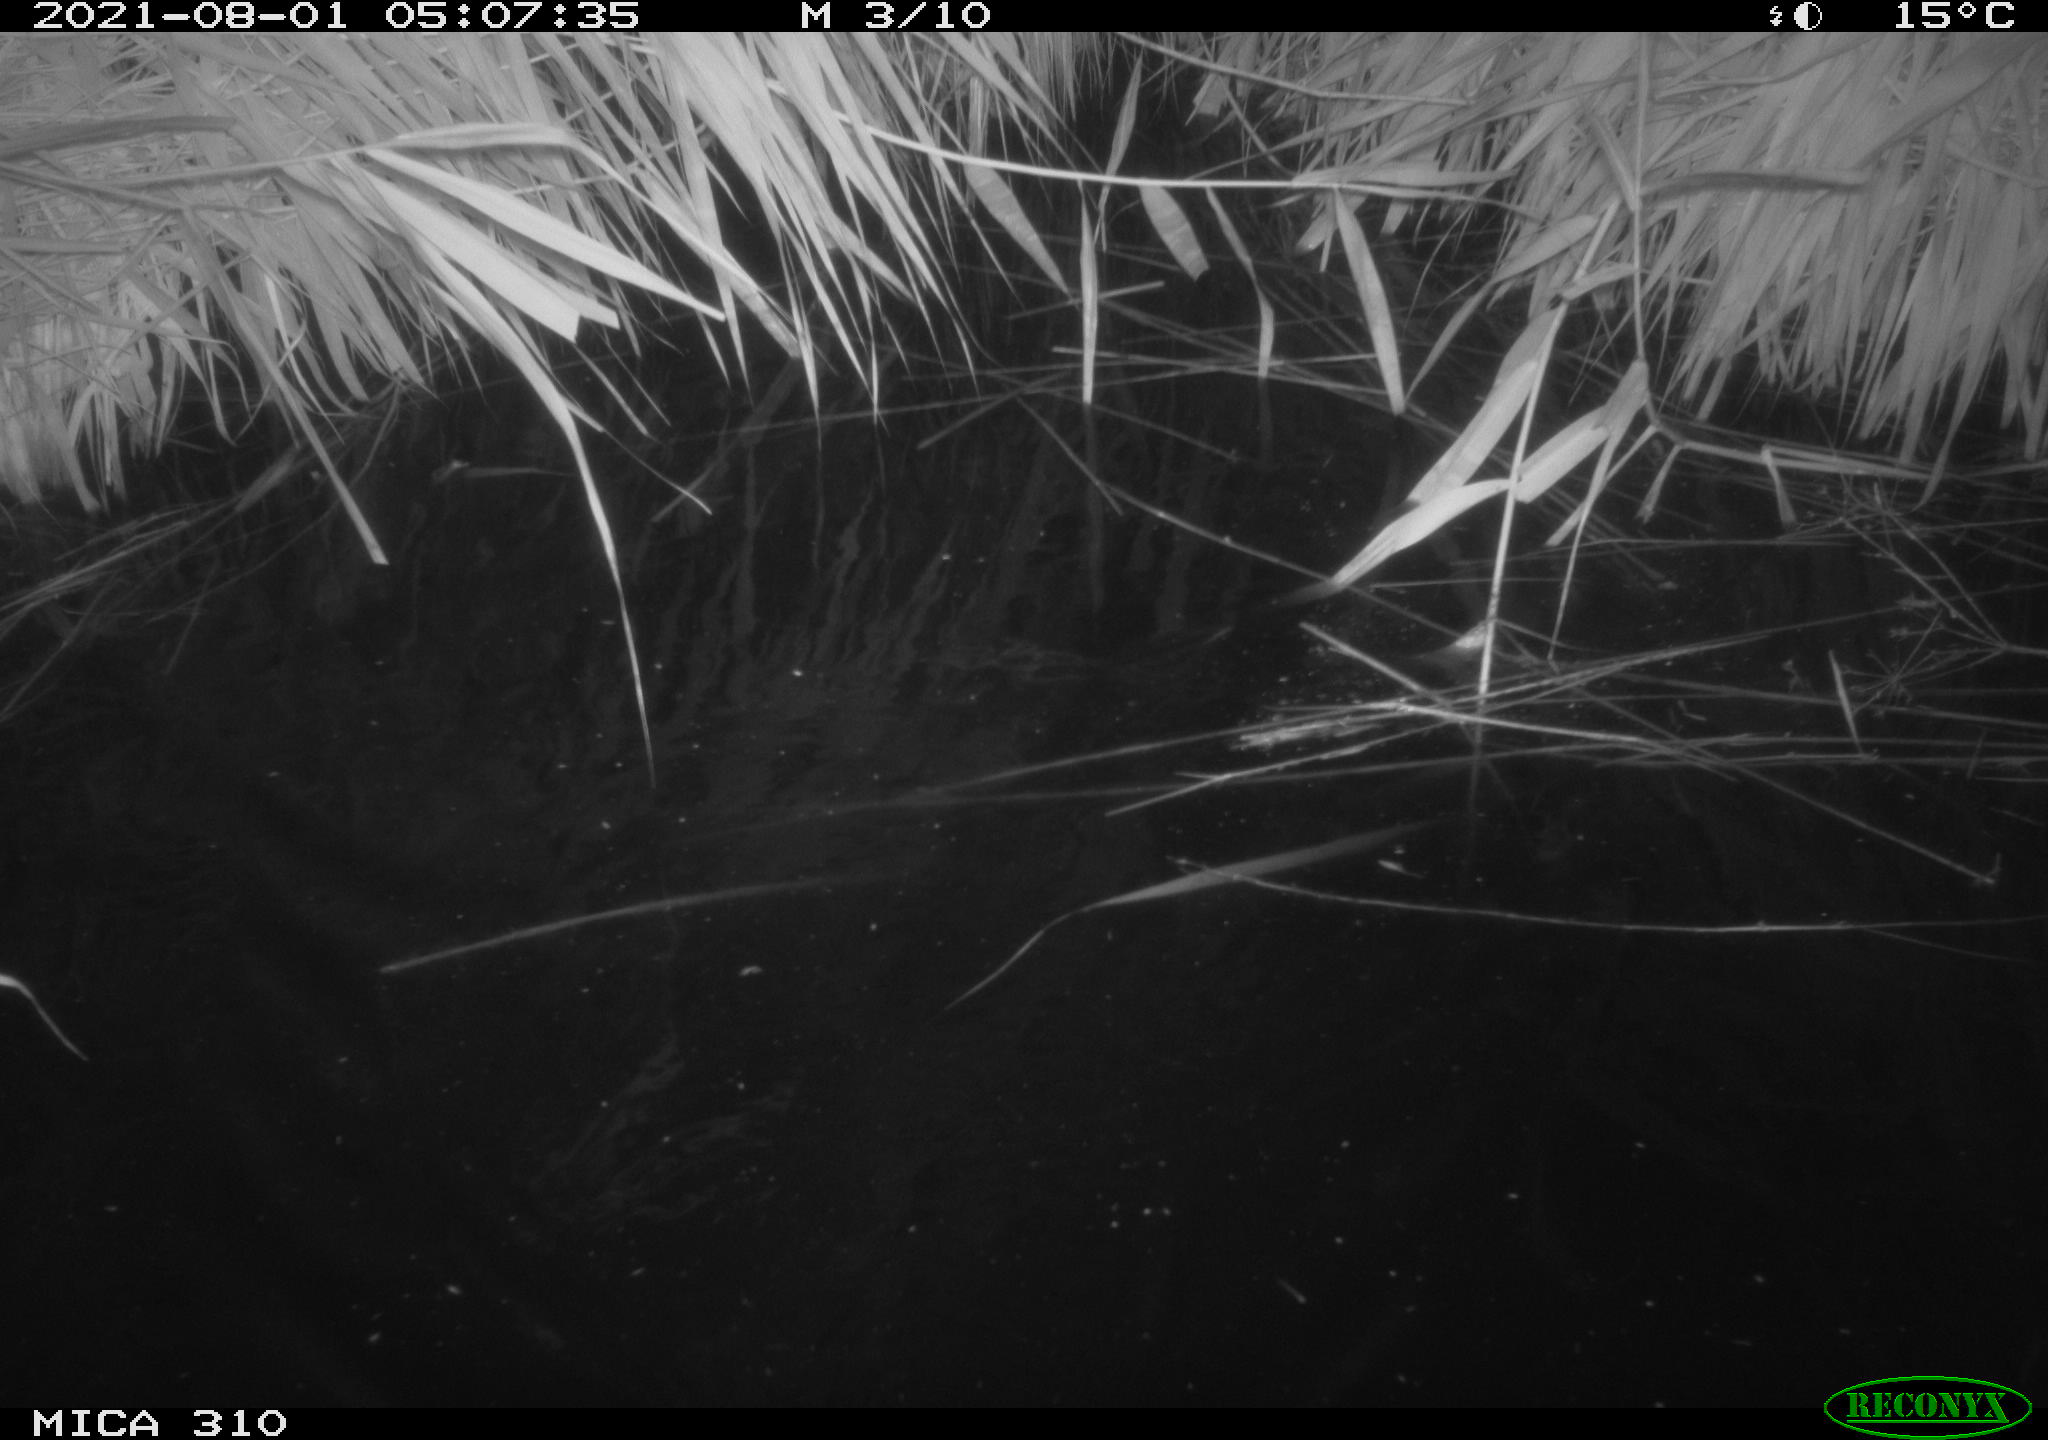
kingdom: Animalia
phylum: Chordata
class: Aves
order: Anseriformes
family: Anatidae
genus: Anas
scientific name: Anas platyrhynchos
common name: Mallard
